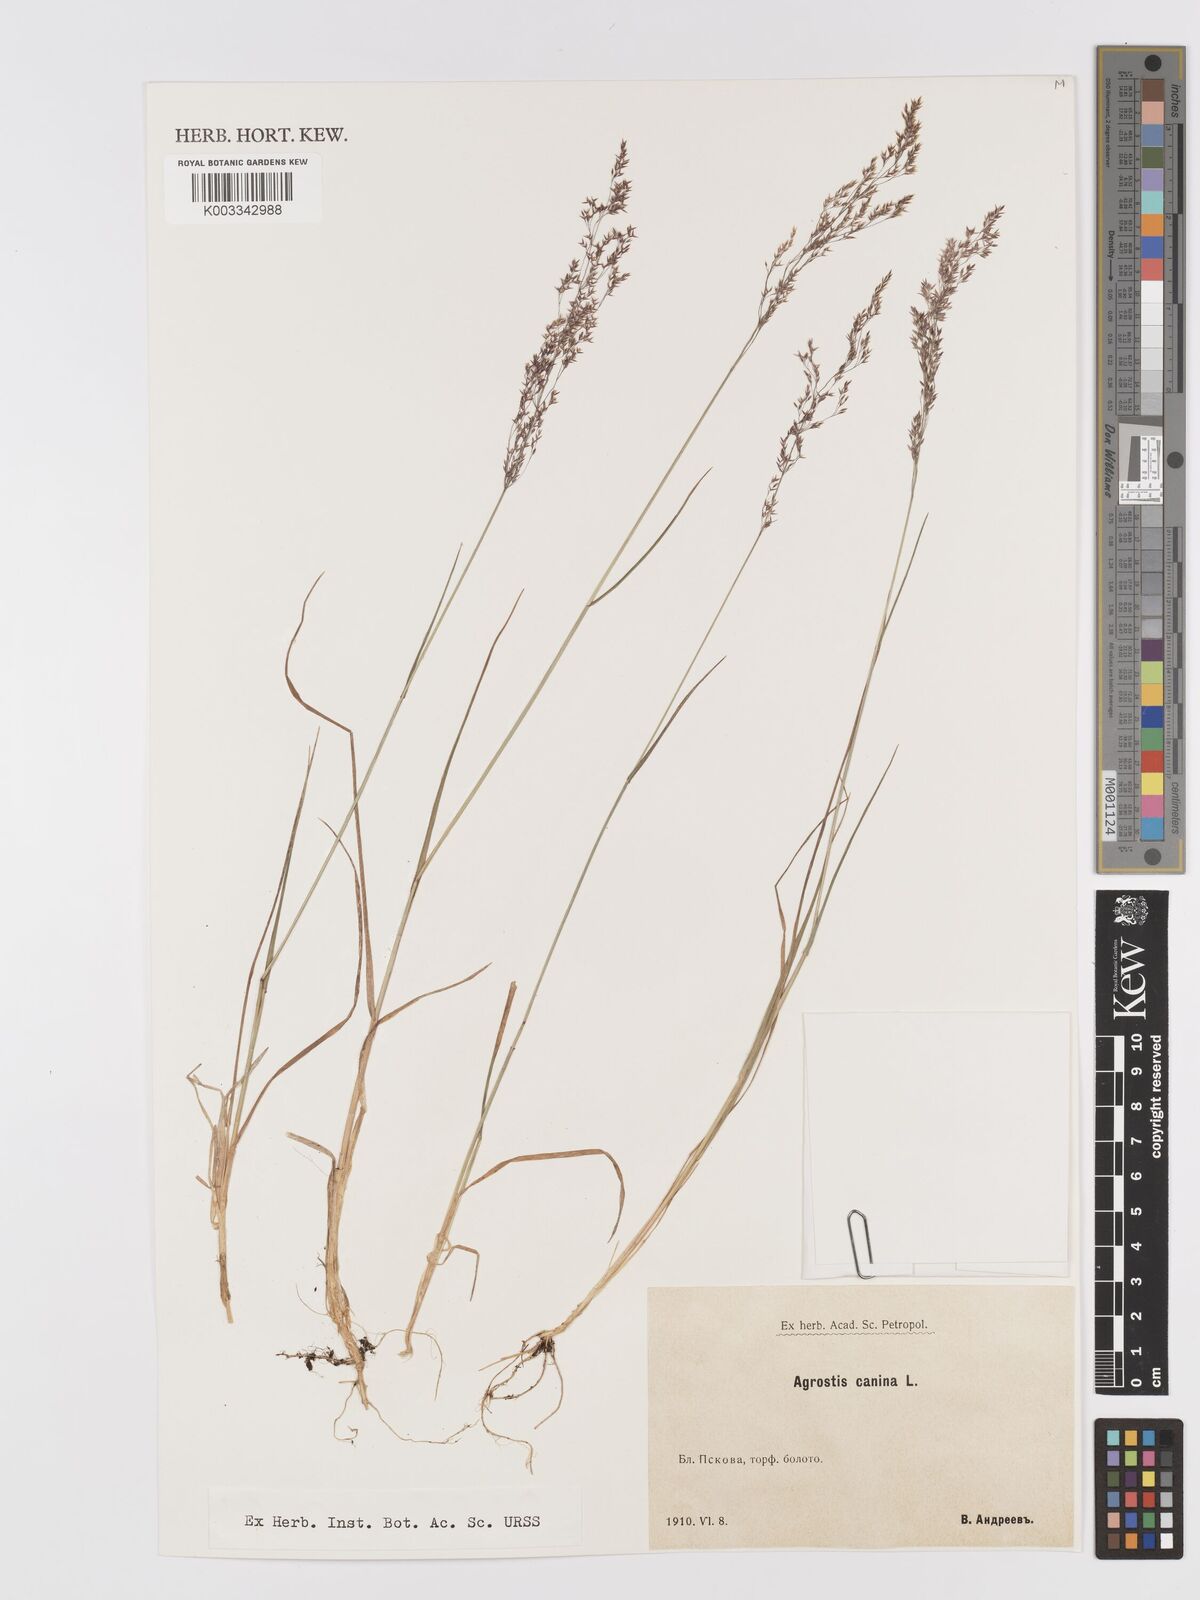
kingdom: Plantae
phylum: Tracheophyta
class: Liliopsida
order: Poales
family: Poaceae
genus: Agrostis
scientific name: Agrostis canina
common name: Velvet bent
